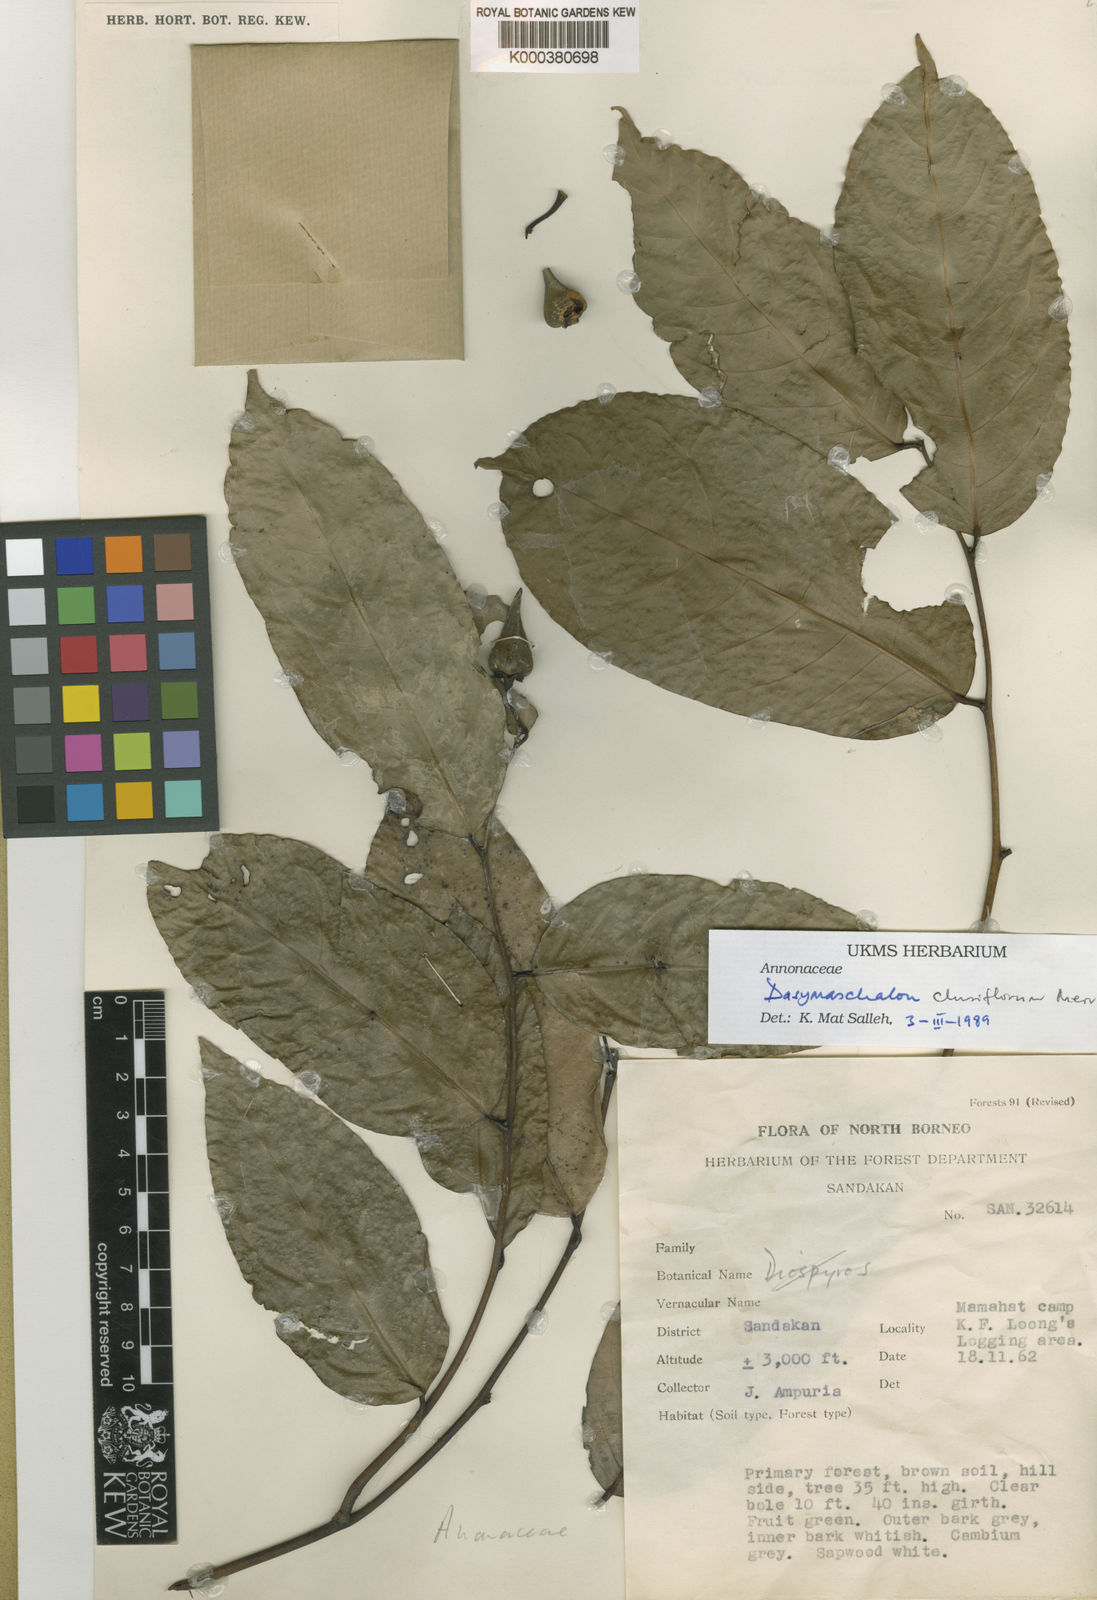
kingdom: Plantae
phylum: Tracheophyta
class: Magnoliopsida
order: Magnoliales
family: Annonaceae
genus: Dasymaschalon
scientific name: Dasymaschalon minutiflorum
